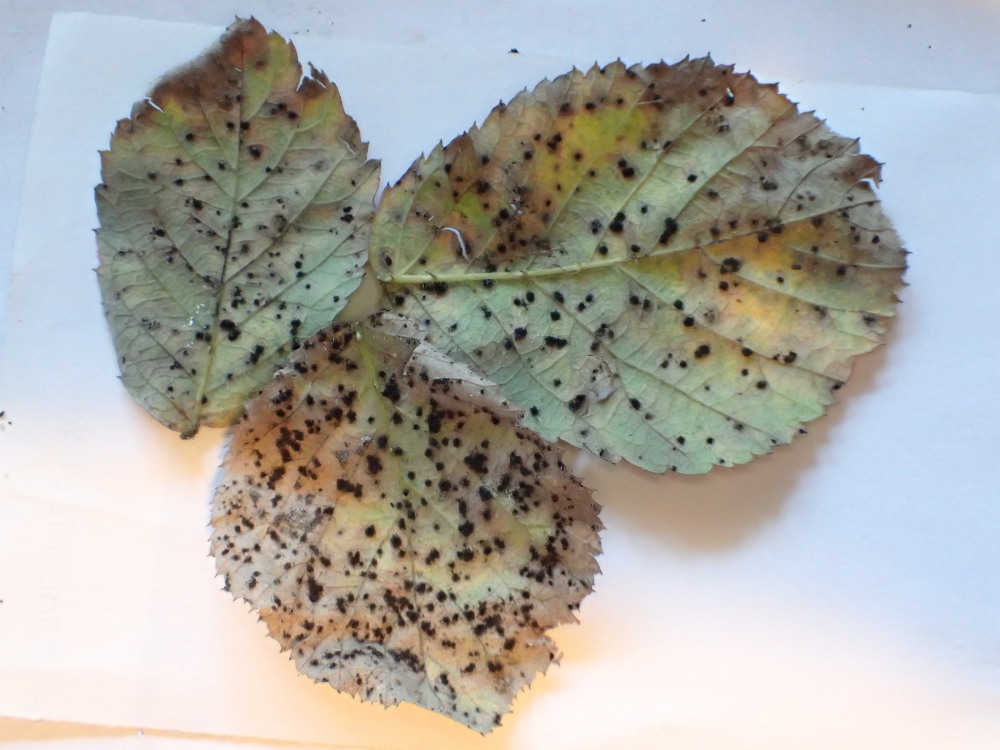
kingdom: Fungi
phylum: Basidiomycota
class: Pucciniomycetes
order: Pucciniales
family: Phragmidiaceae
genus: Phragmidium
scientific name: Phragmidium violaceum
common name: violet flercellerust
